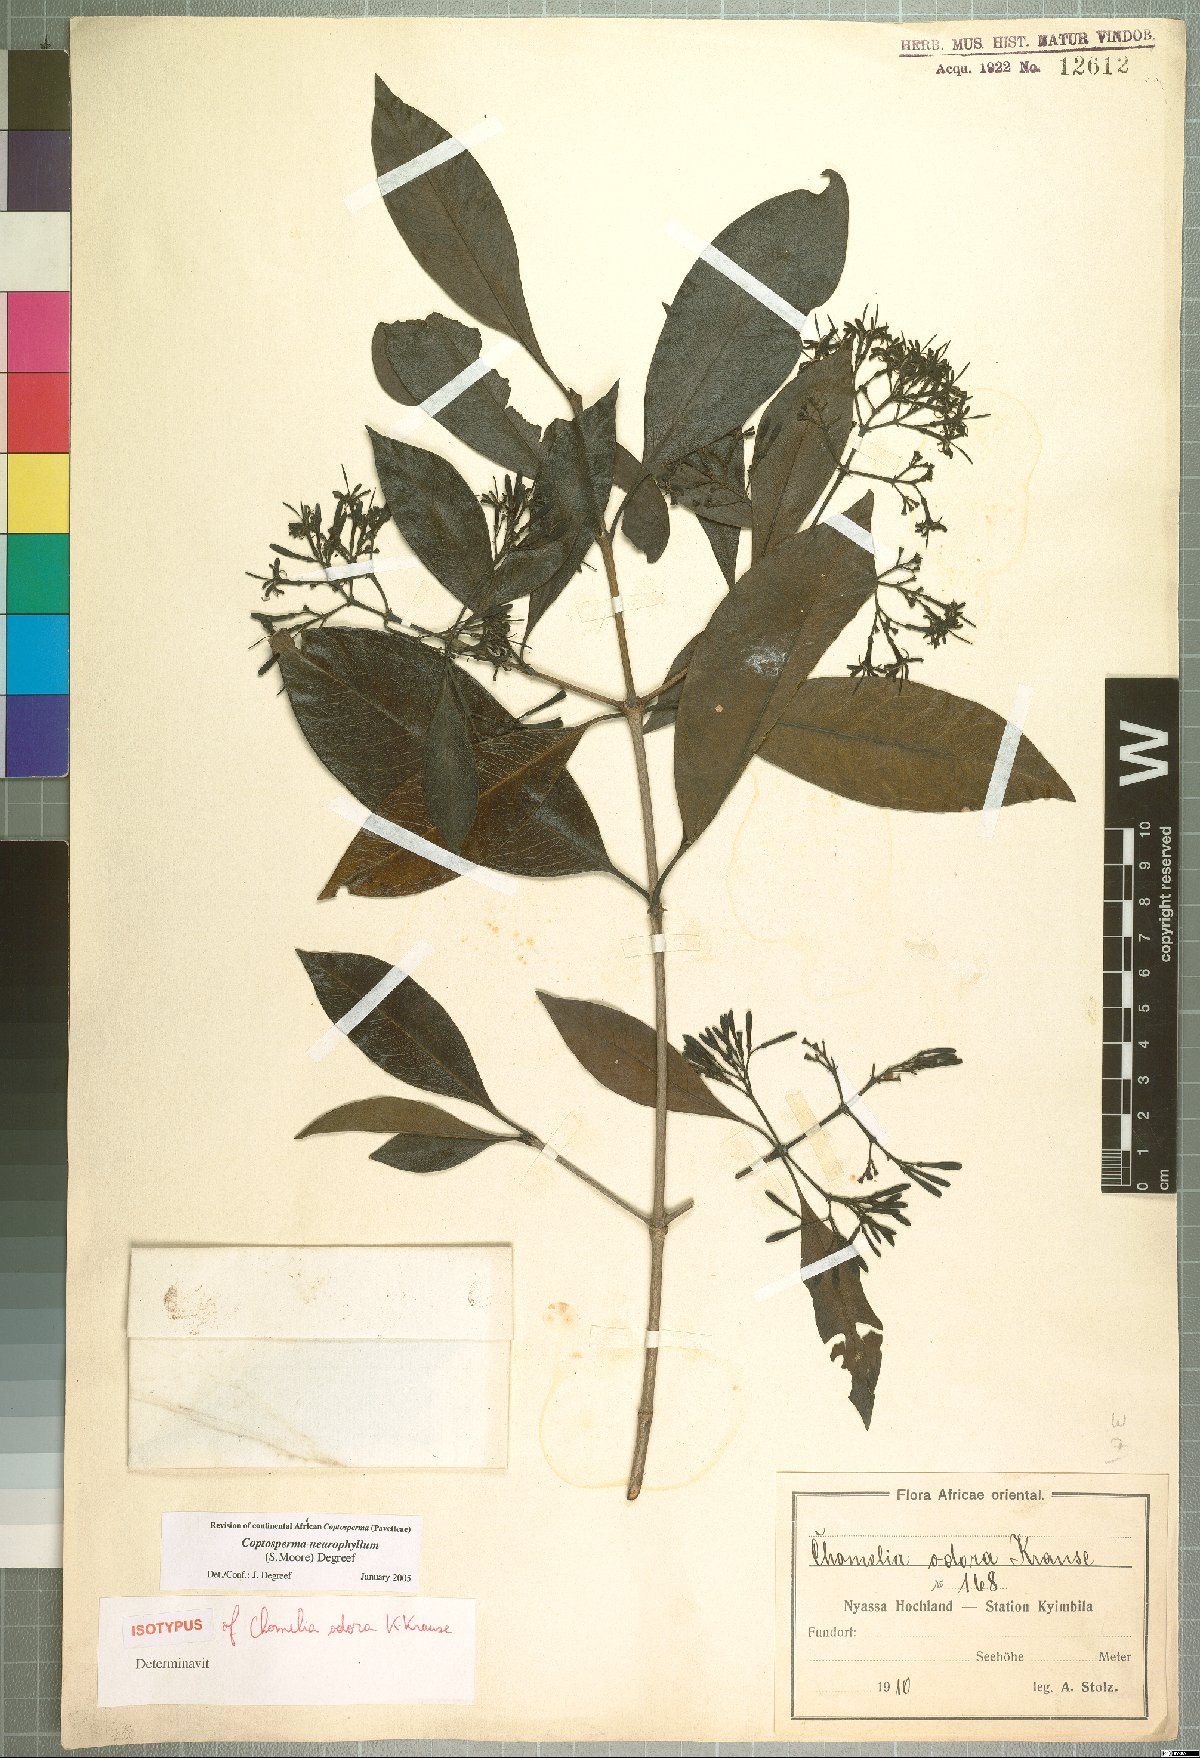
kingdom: Plantae
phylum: Tracheophyta
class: Magnoliopsida
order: Gentianales
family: Rubiaceae
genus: Coptosperma
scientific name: Coptosperma neurophyllum
